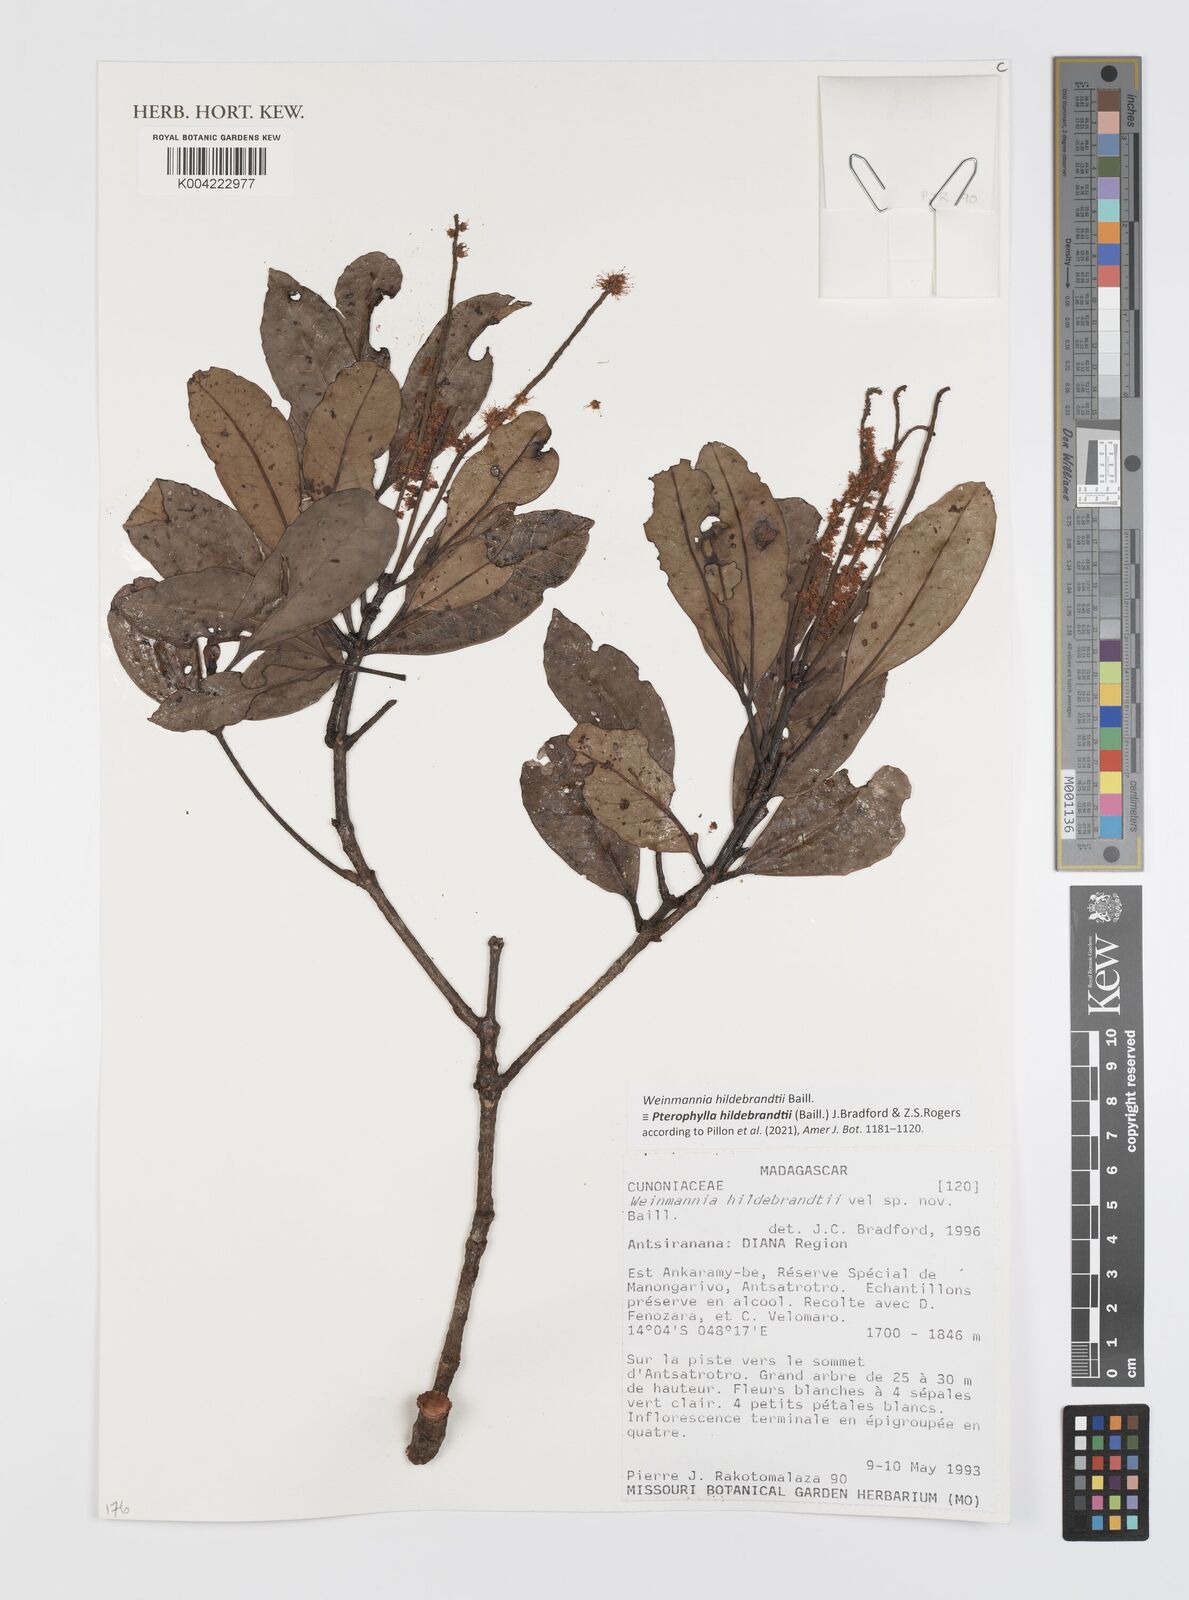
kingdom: Plantae
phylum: Tracheophyta
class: Magnoliopsida
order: Oxalidales
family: Cunoniaceae
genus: Pterophylla
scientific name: Pterophylla hildebrandtii
